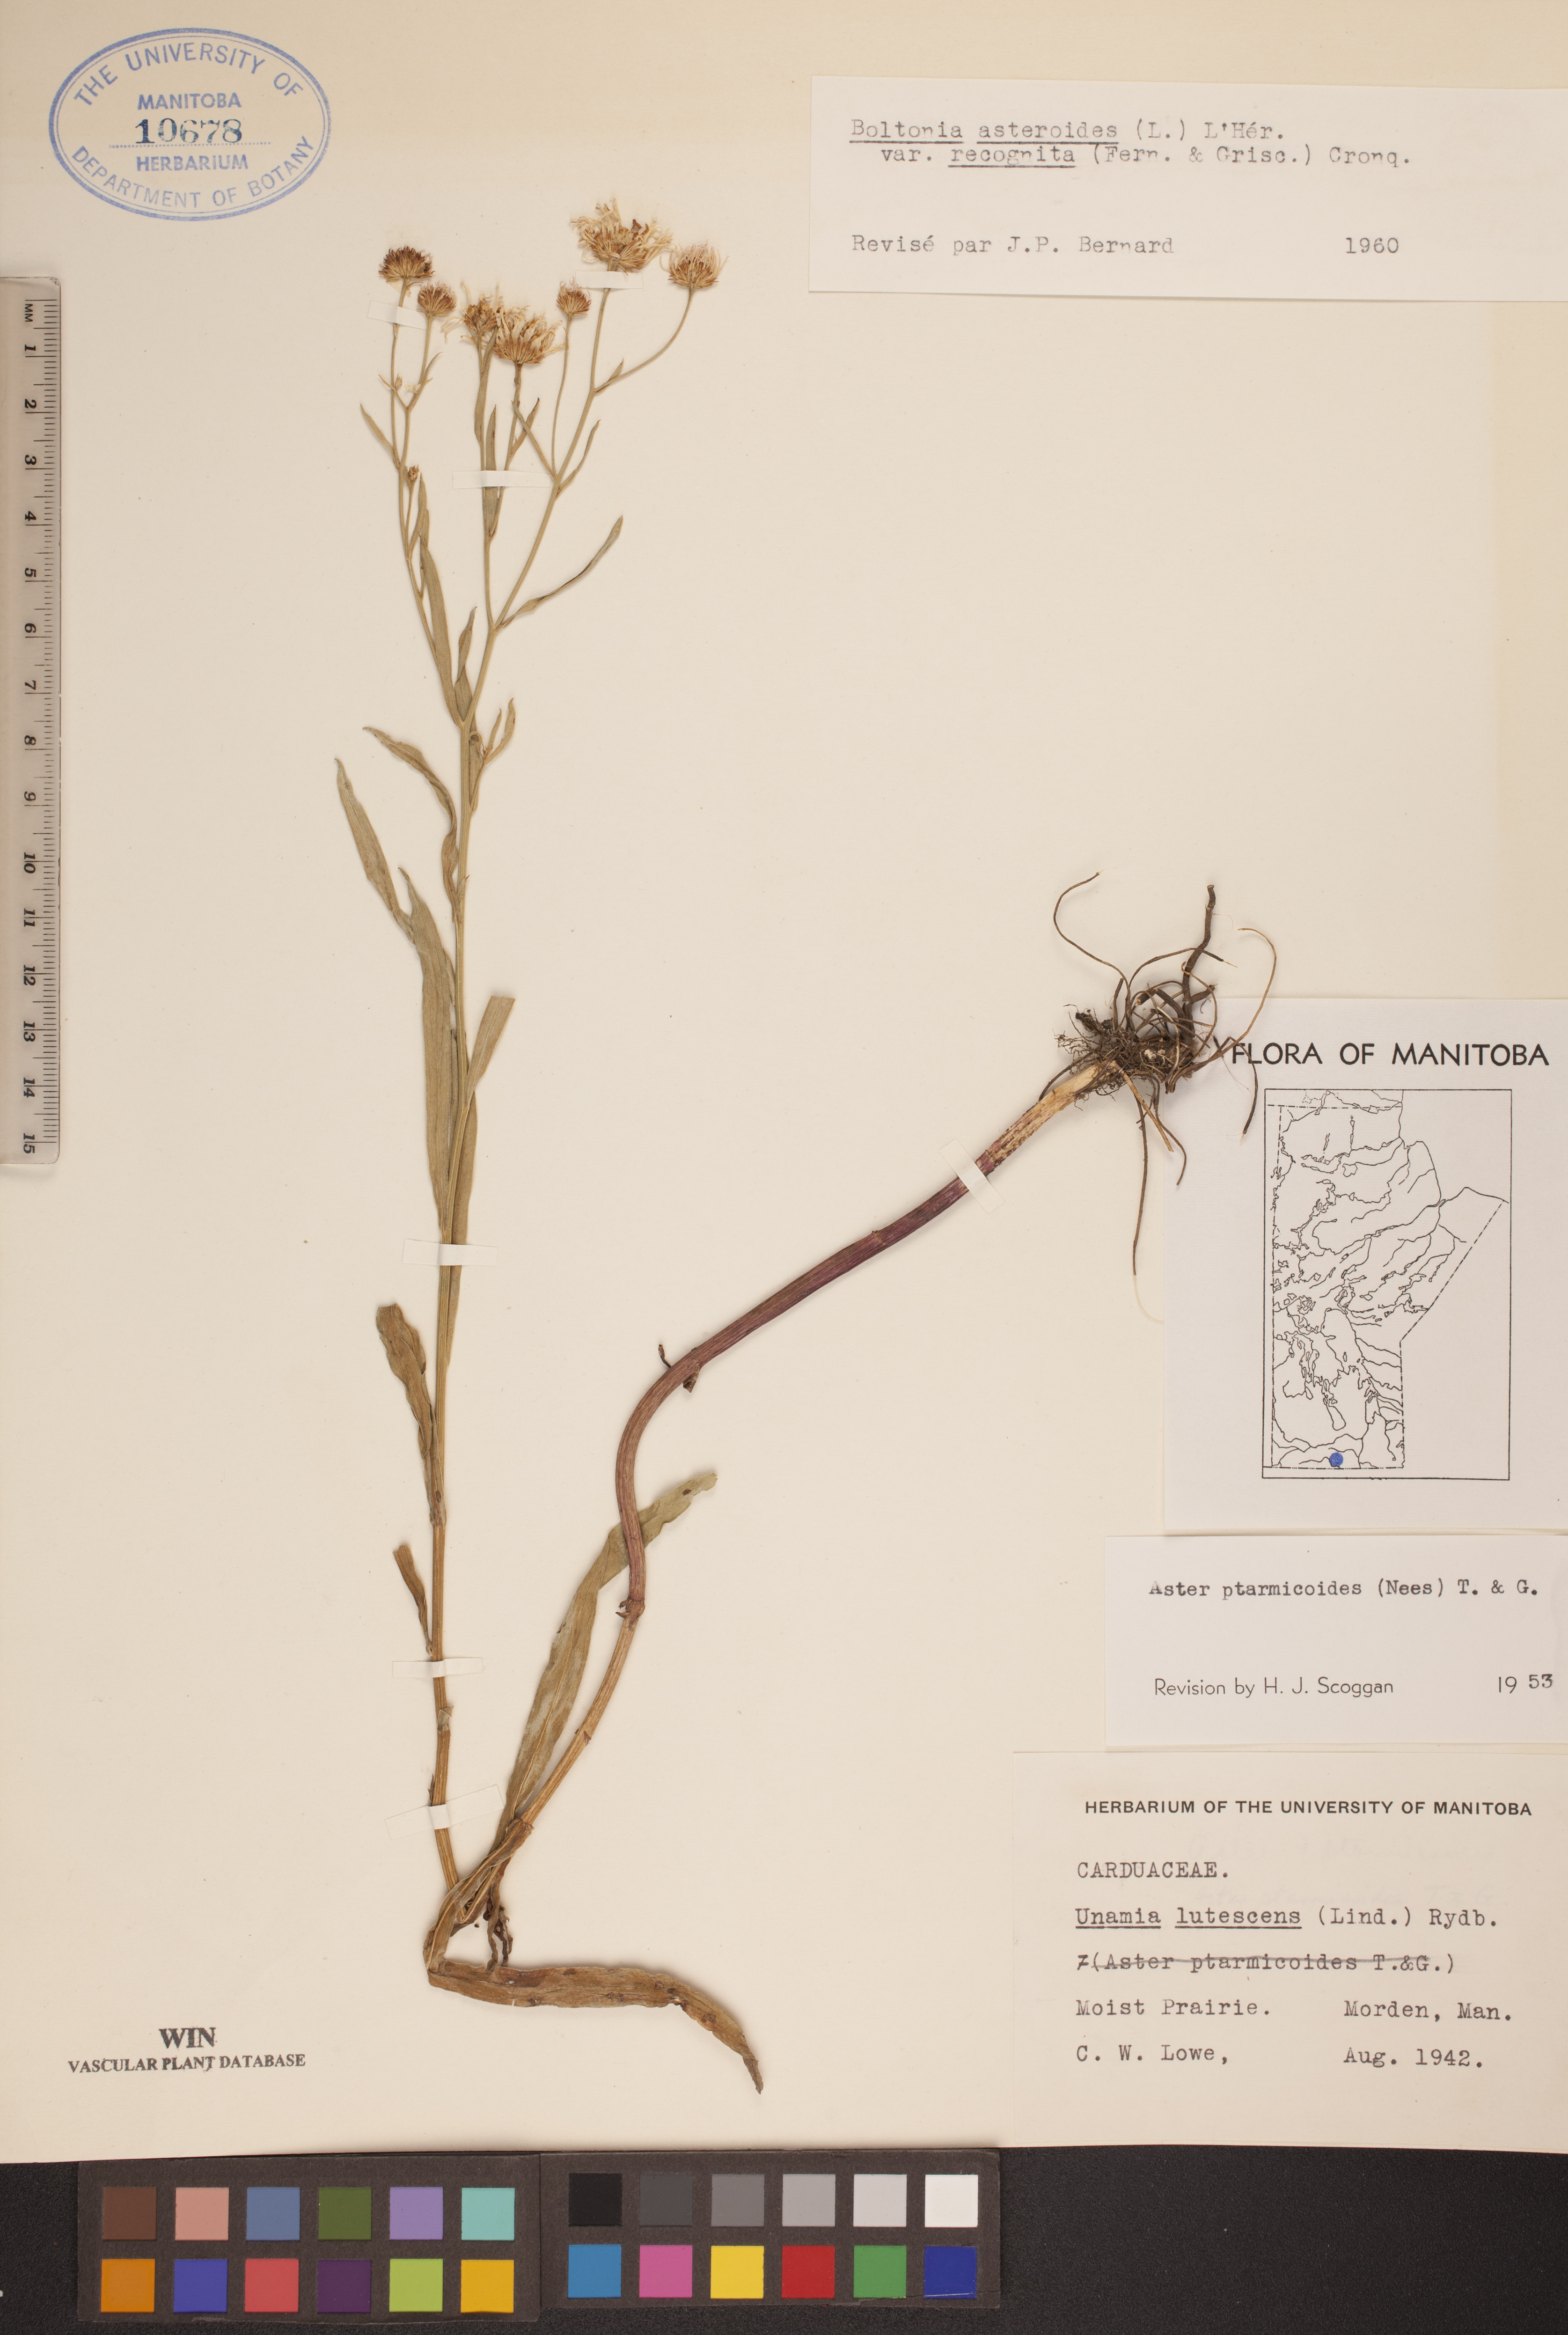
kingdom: Plantae
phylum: Tracheophyta
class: Magnoliopsida
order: Asterales
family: Asteraceae
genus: Boltonia
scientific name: Boltonia asteroides
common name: False chamomile
